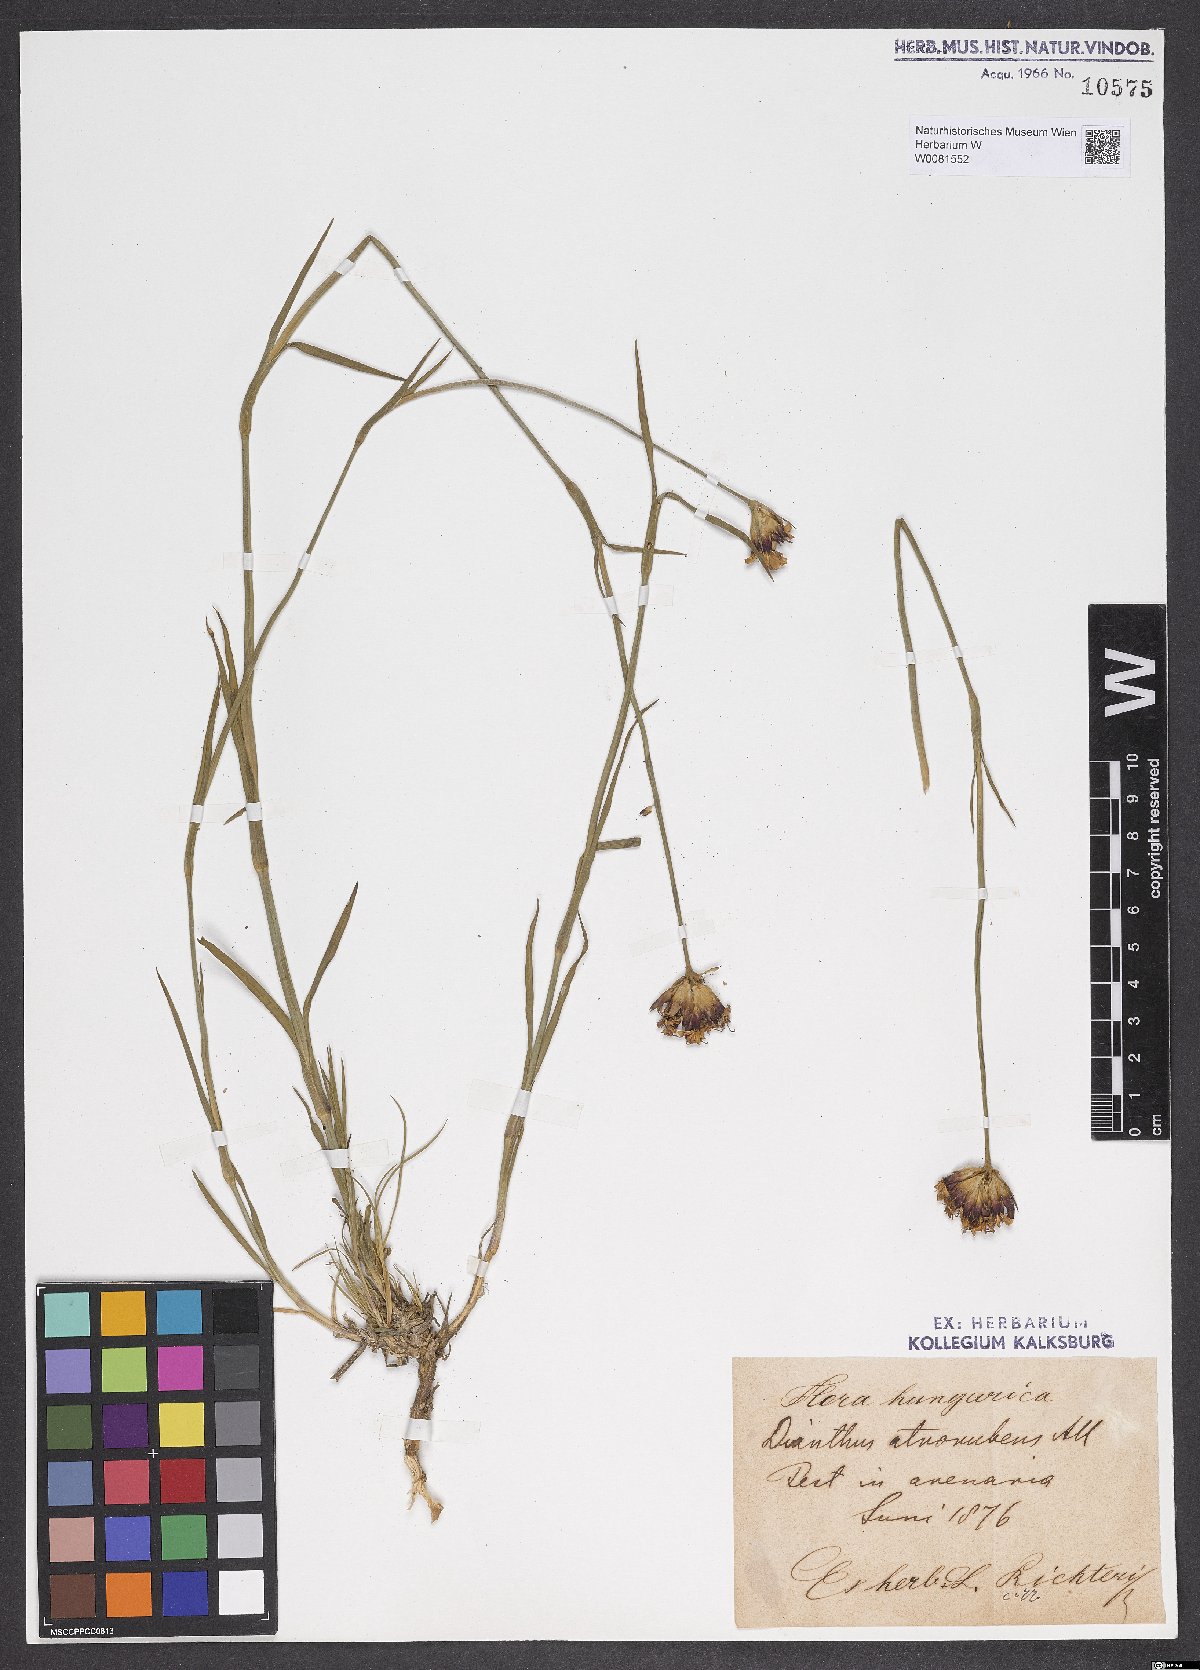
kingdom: Plantae
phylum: Tracheophyta
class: Magnoliopsida
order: Caryophyllales
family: Caryophyllaceae
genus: Dianthus
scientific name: Dianthus carthusianorum
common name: Carthusian pink
